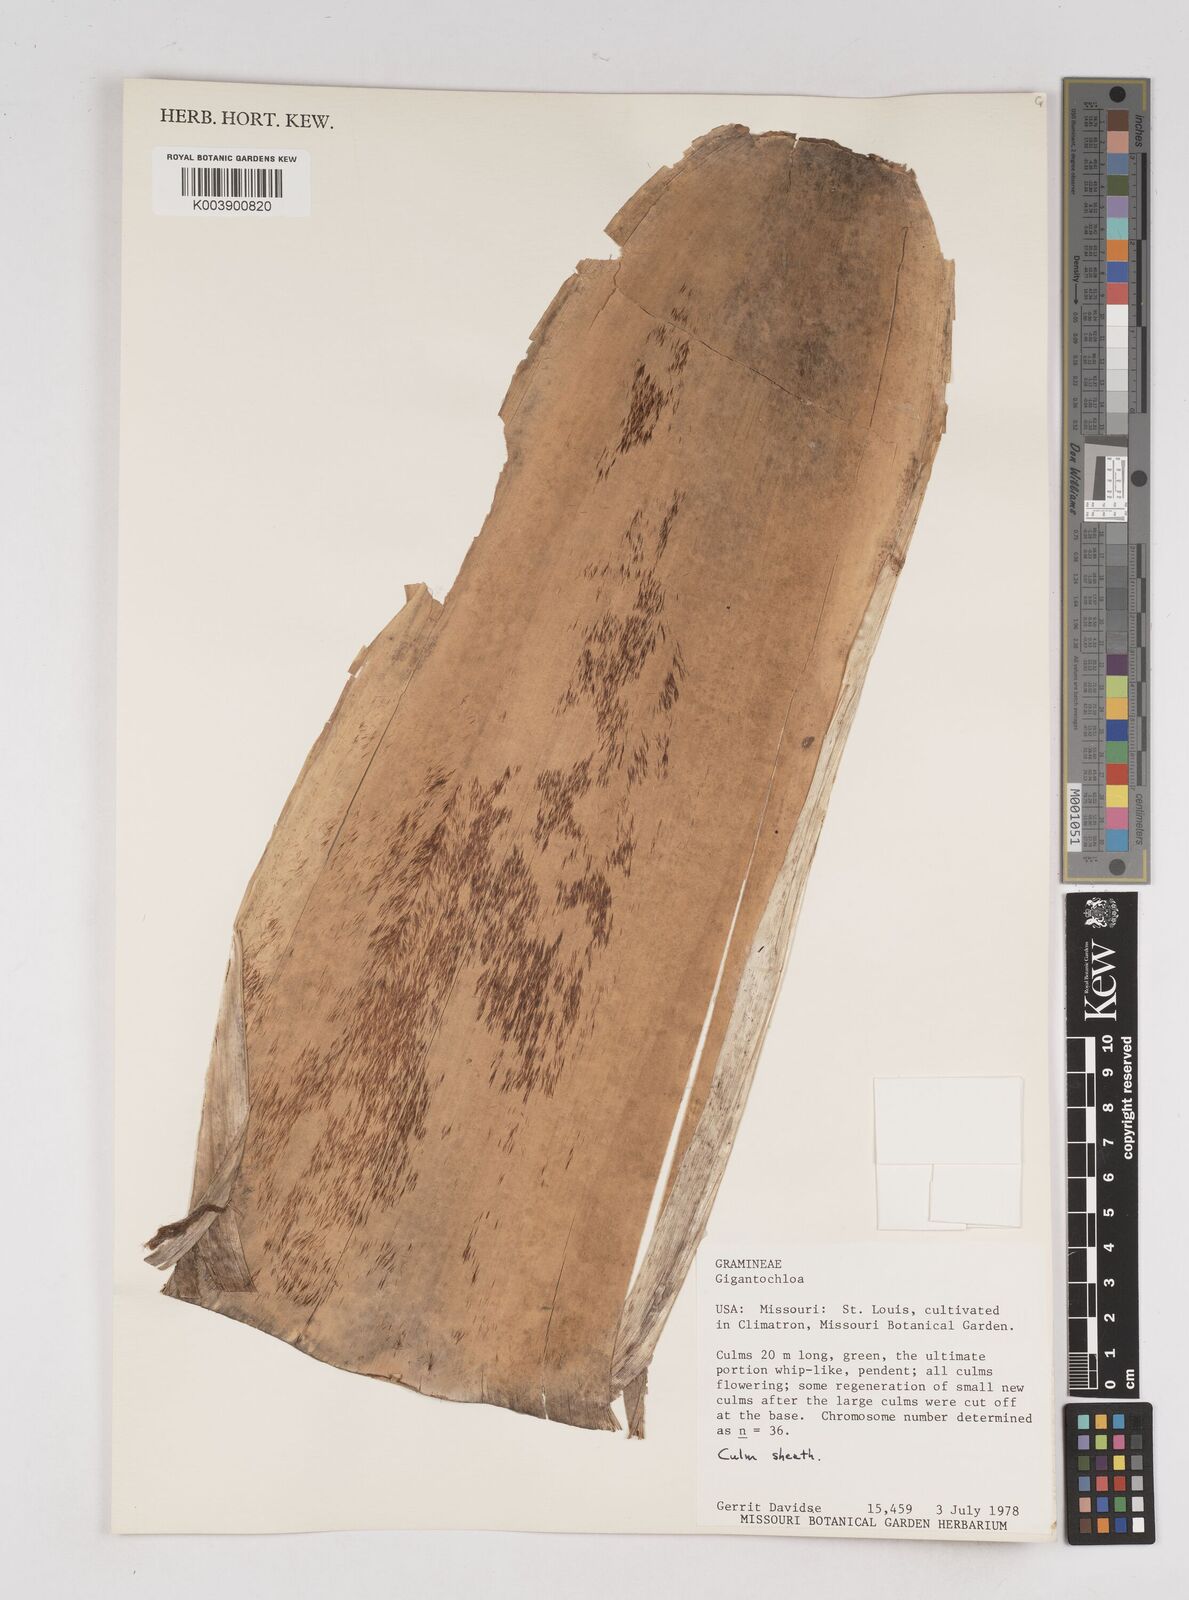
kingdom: Plantae
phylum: Tracheophyta
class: Liliopsida
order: Poales
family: Poaceae
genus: Gigantochloa
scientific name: Gigantochloa
